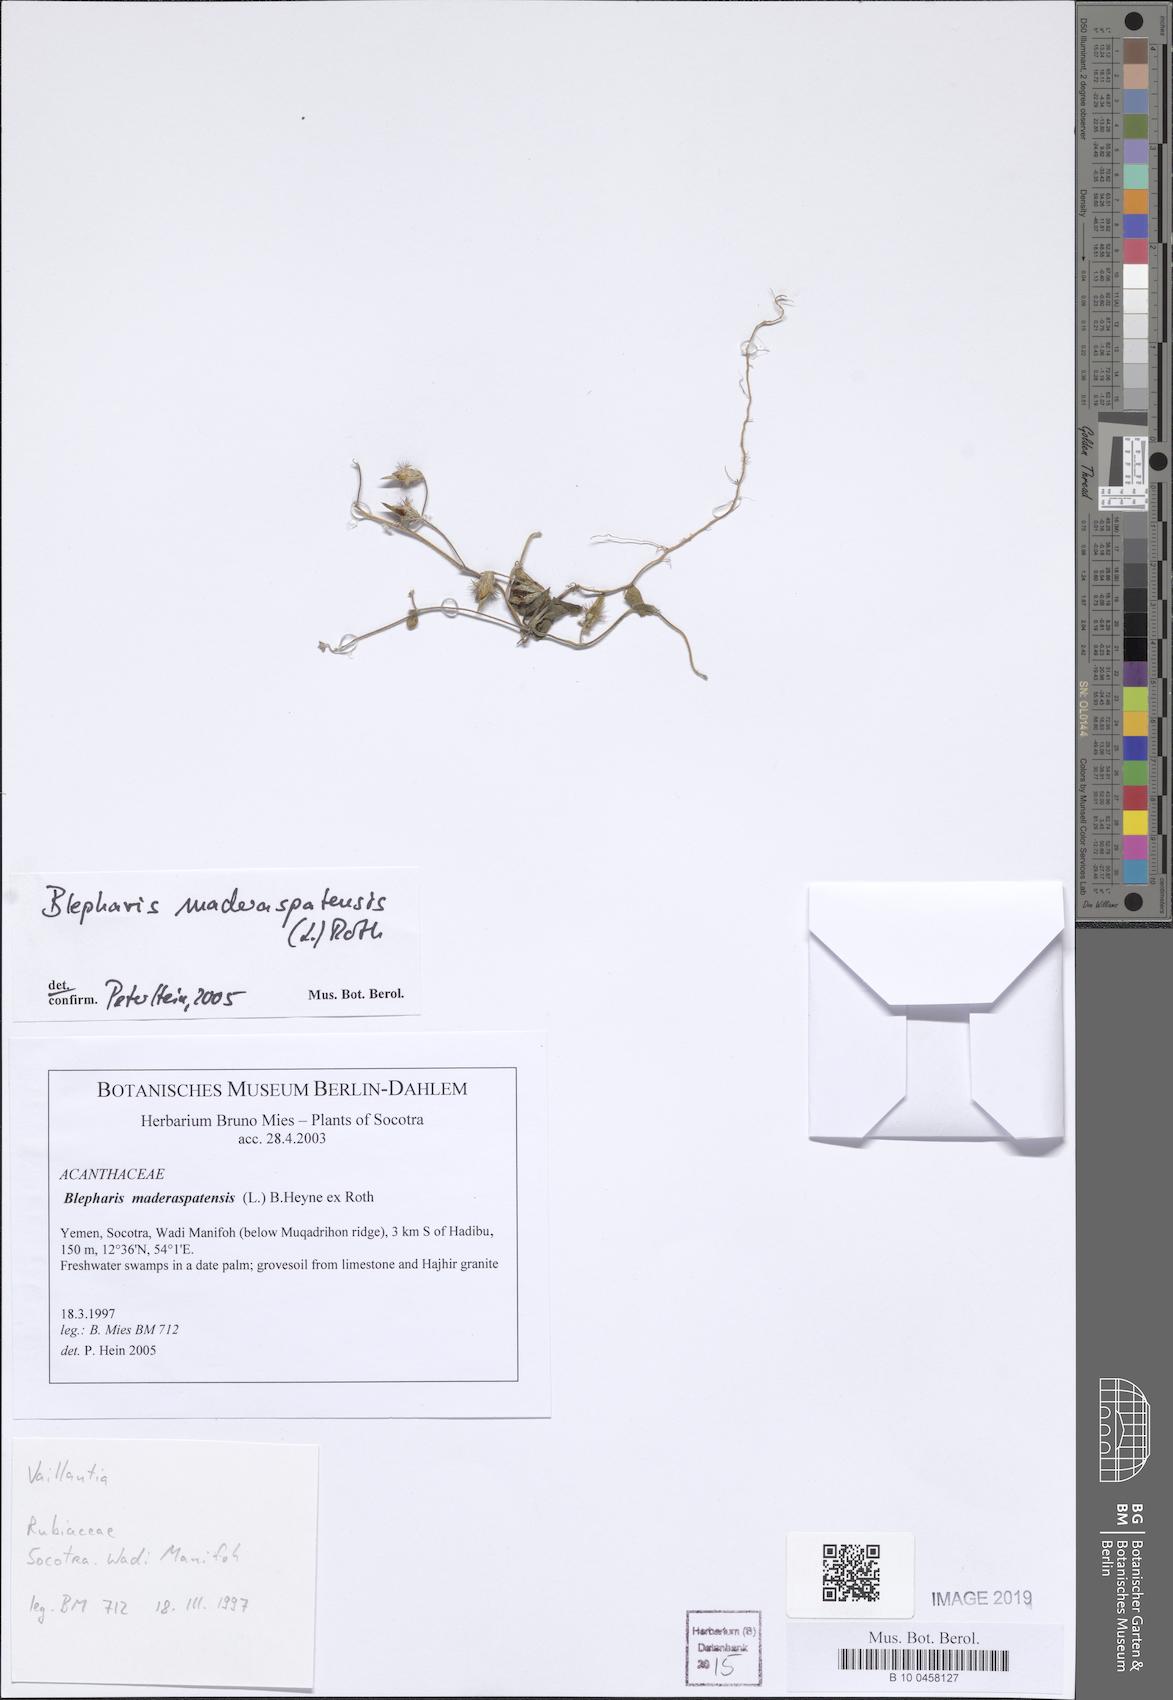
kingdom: Plantae
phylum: Tracheophyta
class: Magnoliopsida
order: Lamiales
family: Acanthaceae
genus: Blepharis
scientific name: Blepharis maderaspatensis
